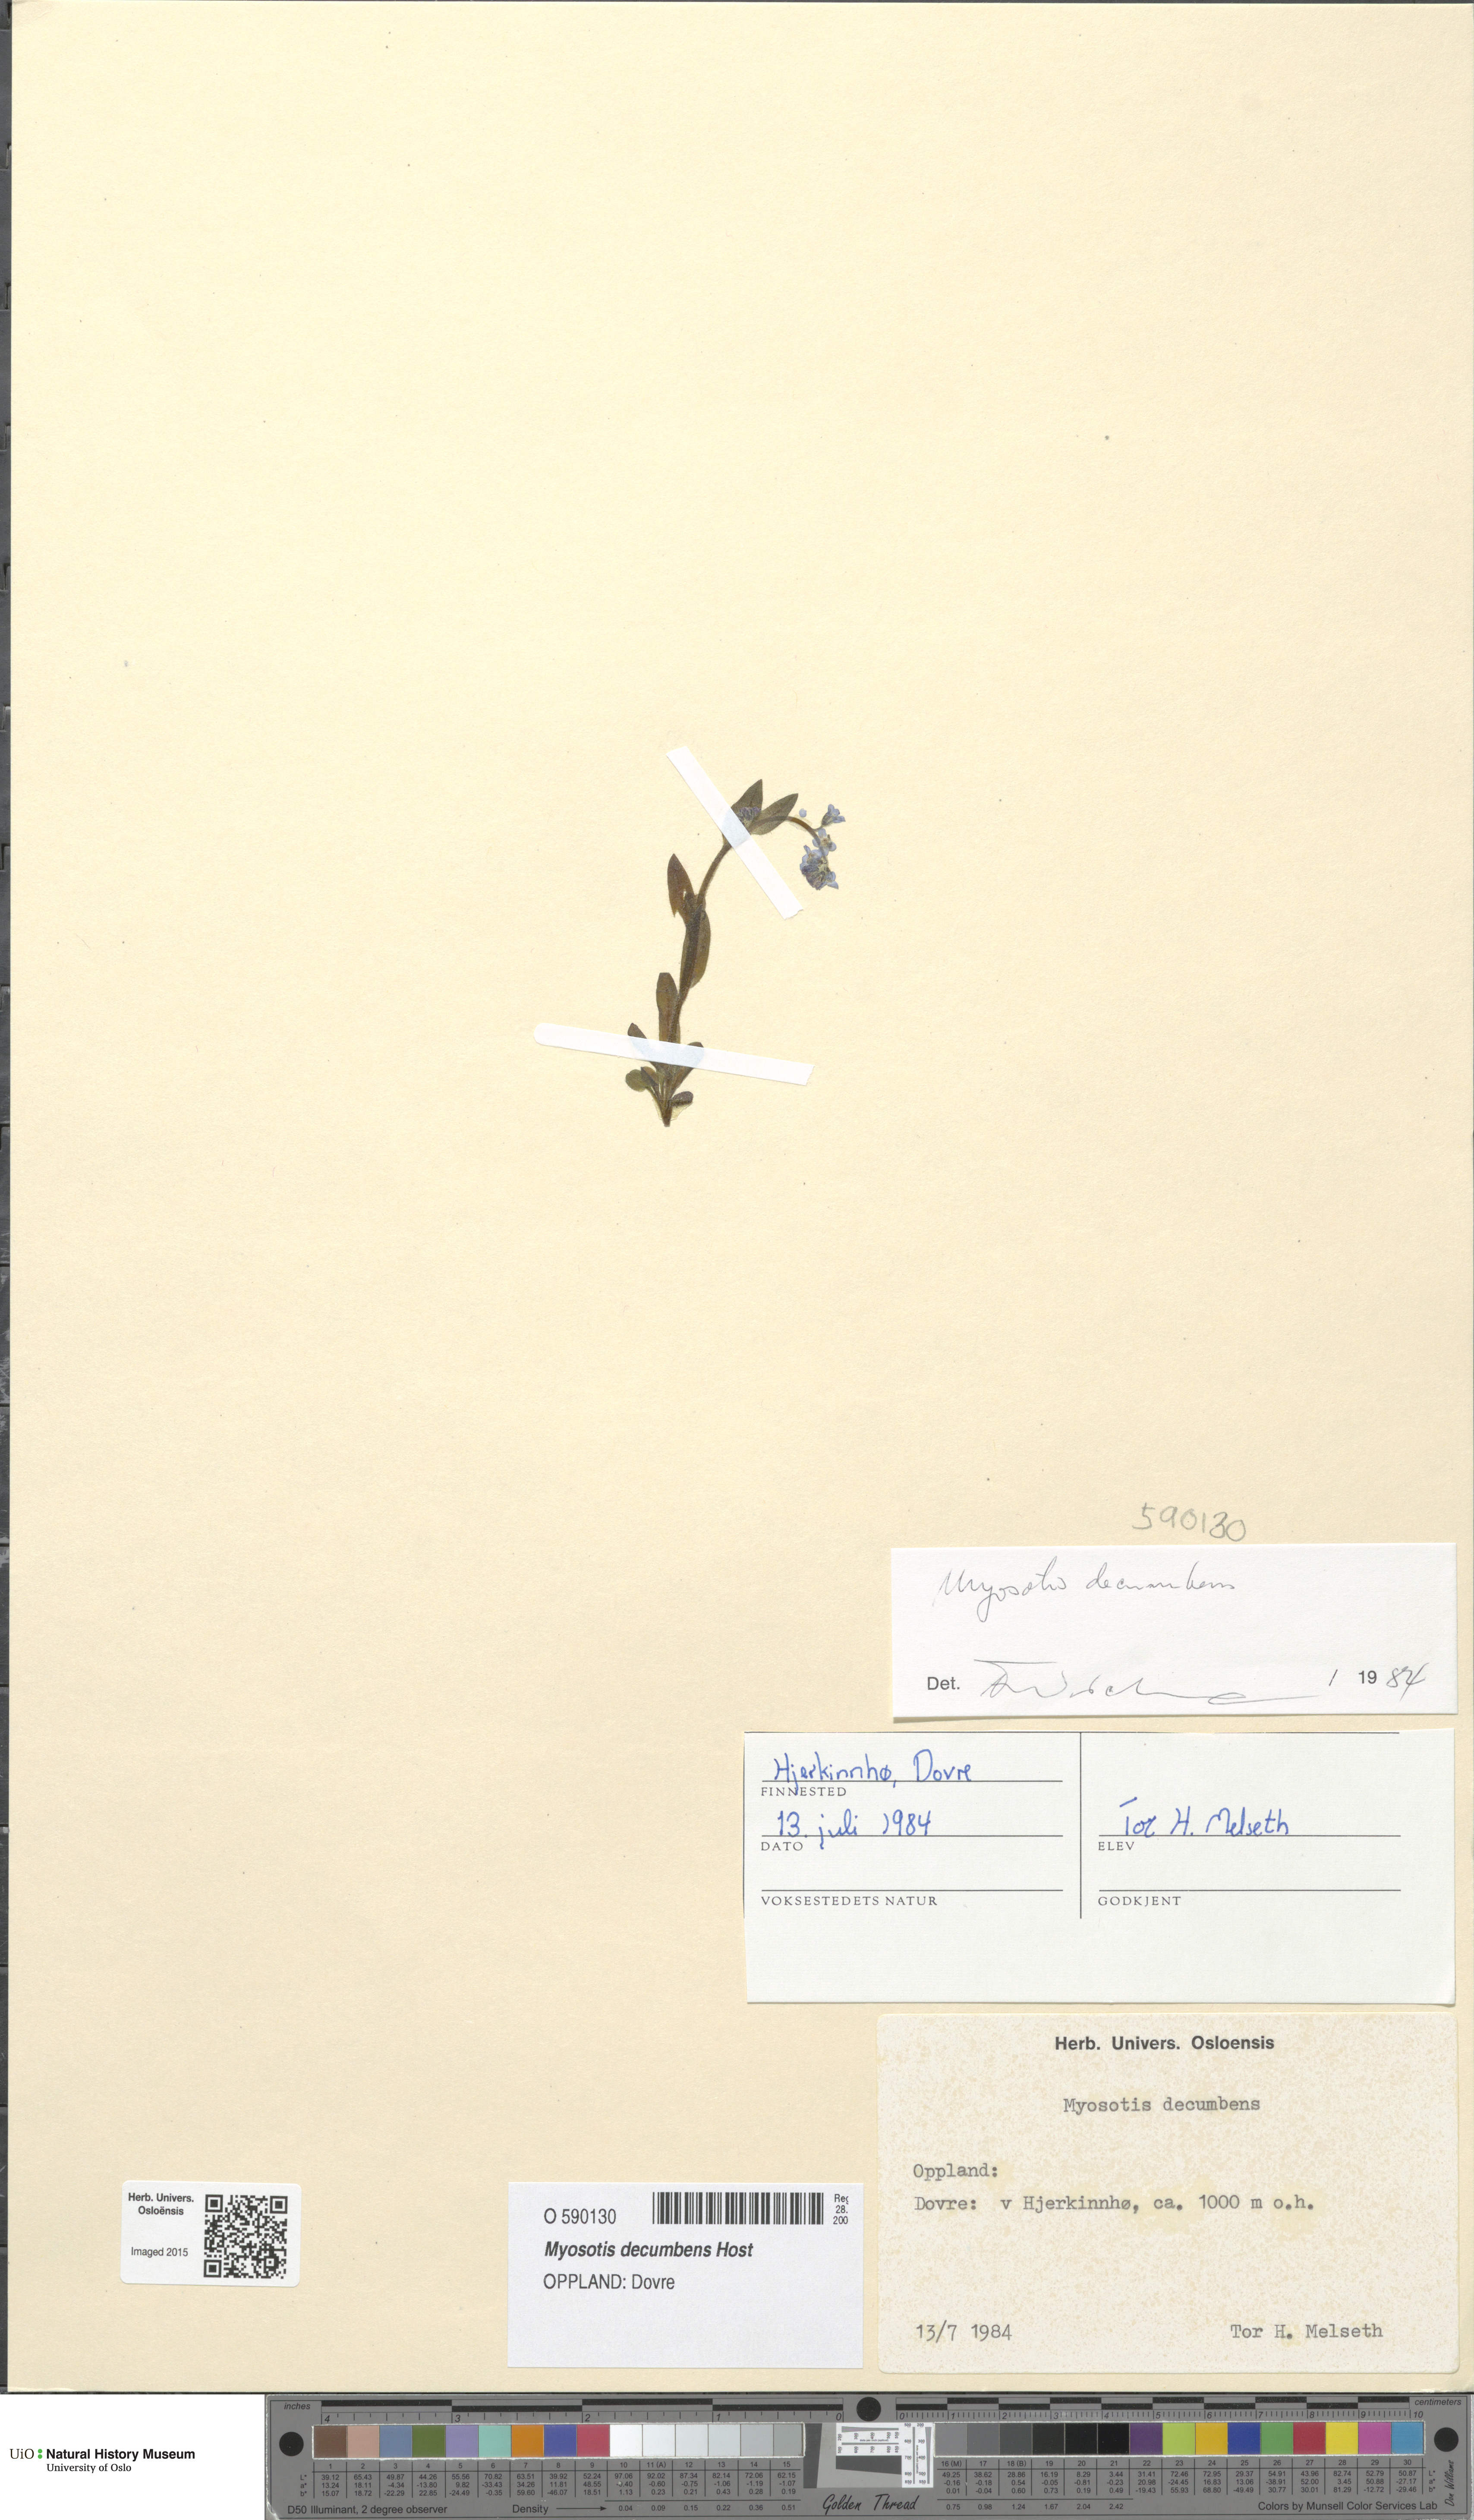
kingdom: Plantae
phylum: Tracheophyta
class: Magnoliopsida
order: Boraginales
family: Boraginaceae
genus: Myosotis
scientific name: Myosotis decumbens
